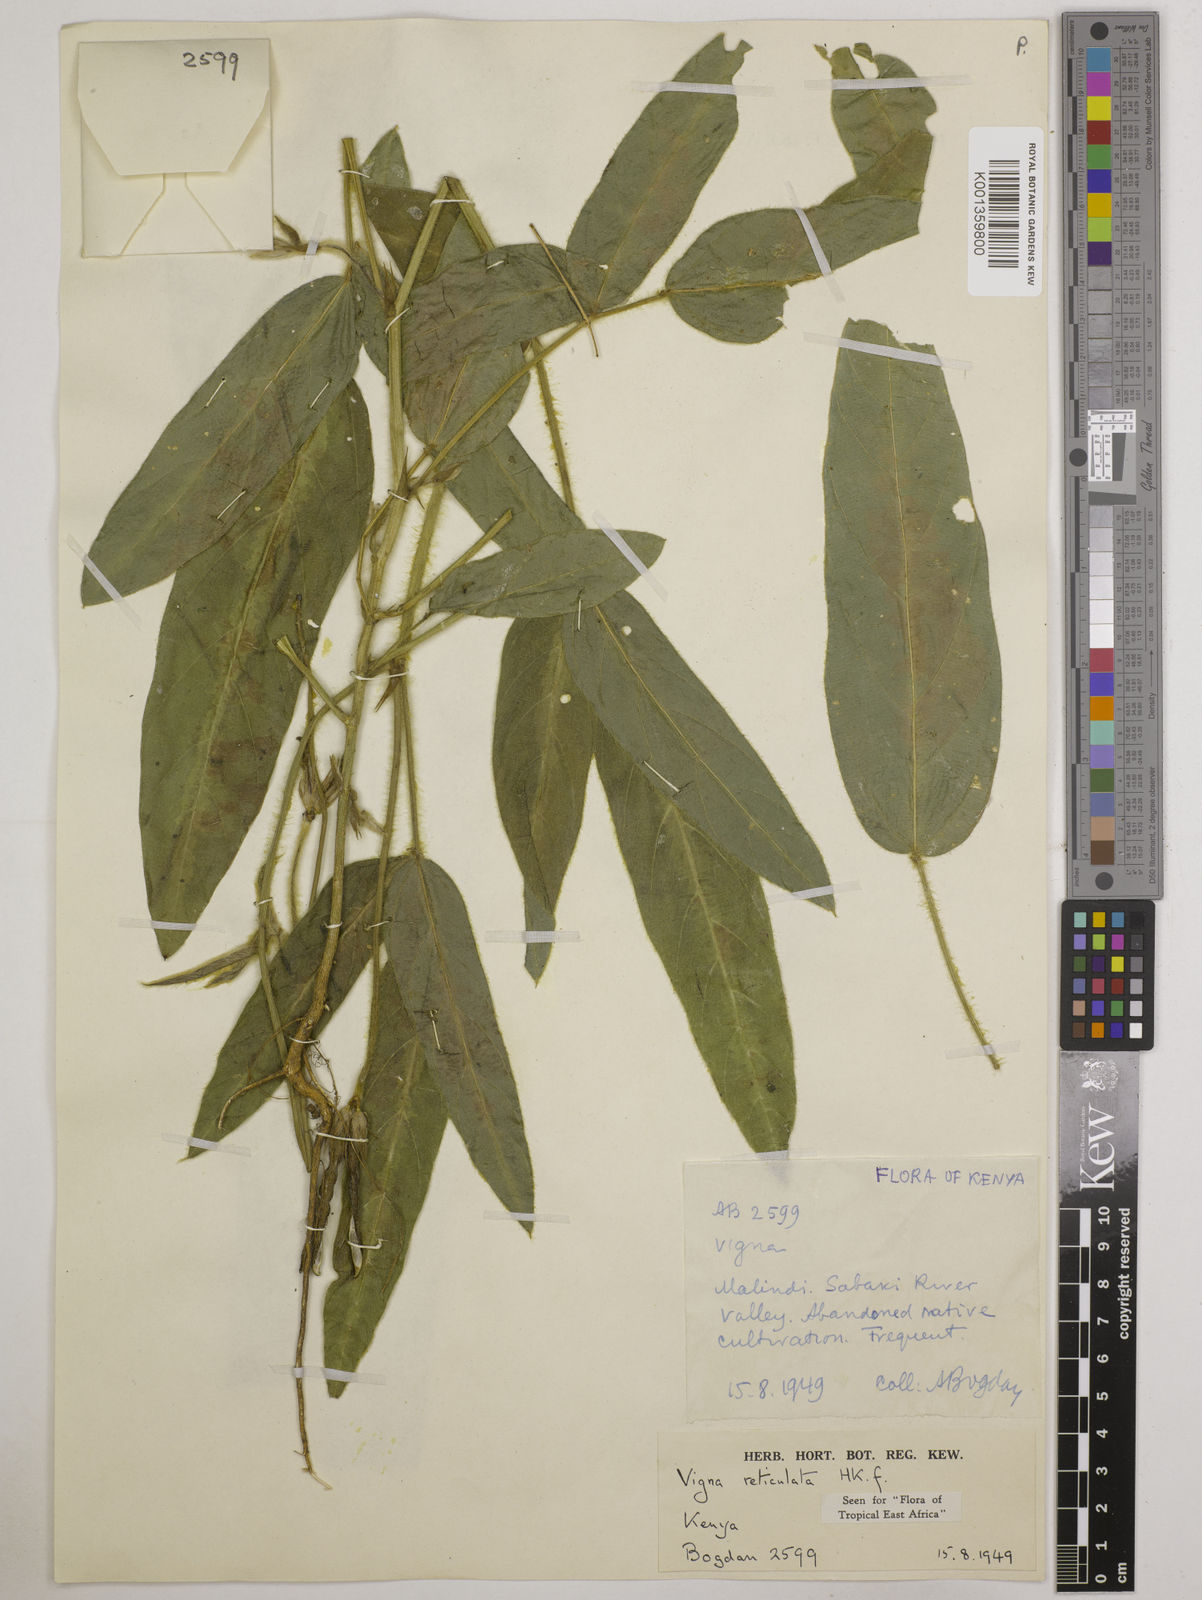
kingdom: Plantae
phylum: Tracheophyta
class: Magnoliopsida
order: Fabales
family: Fabaceae
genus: Vigna
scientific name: Vigna reticulata
